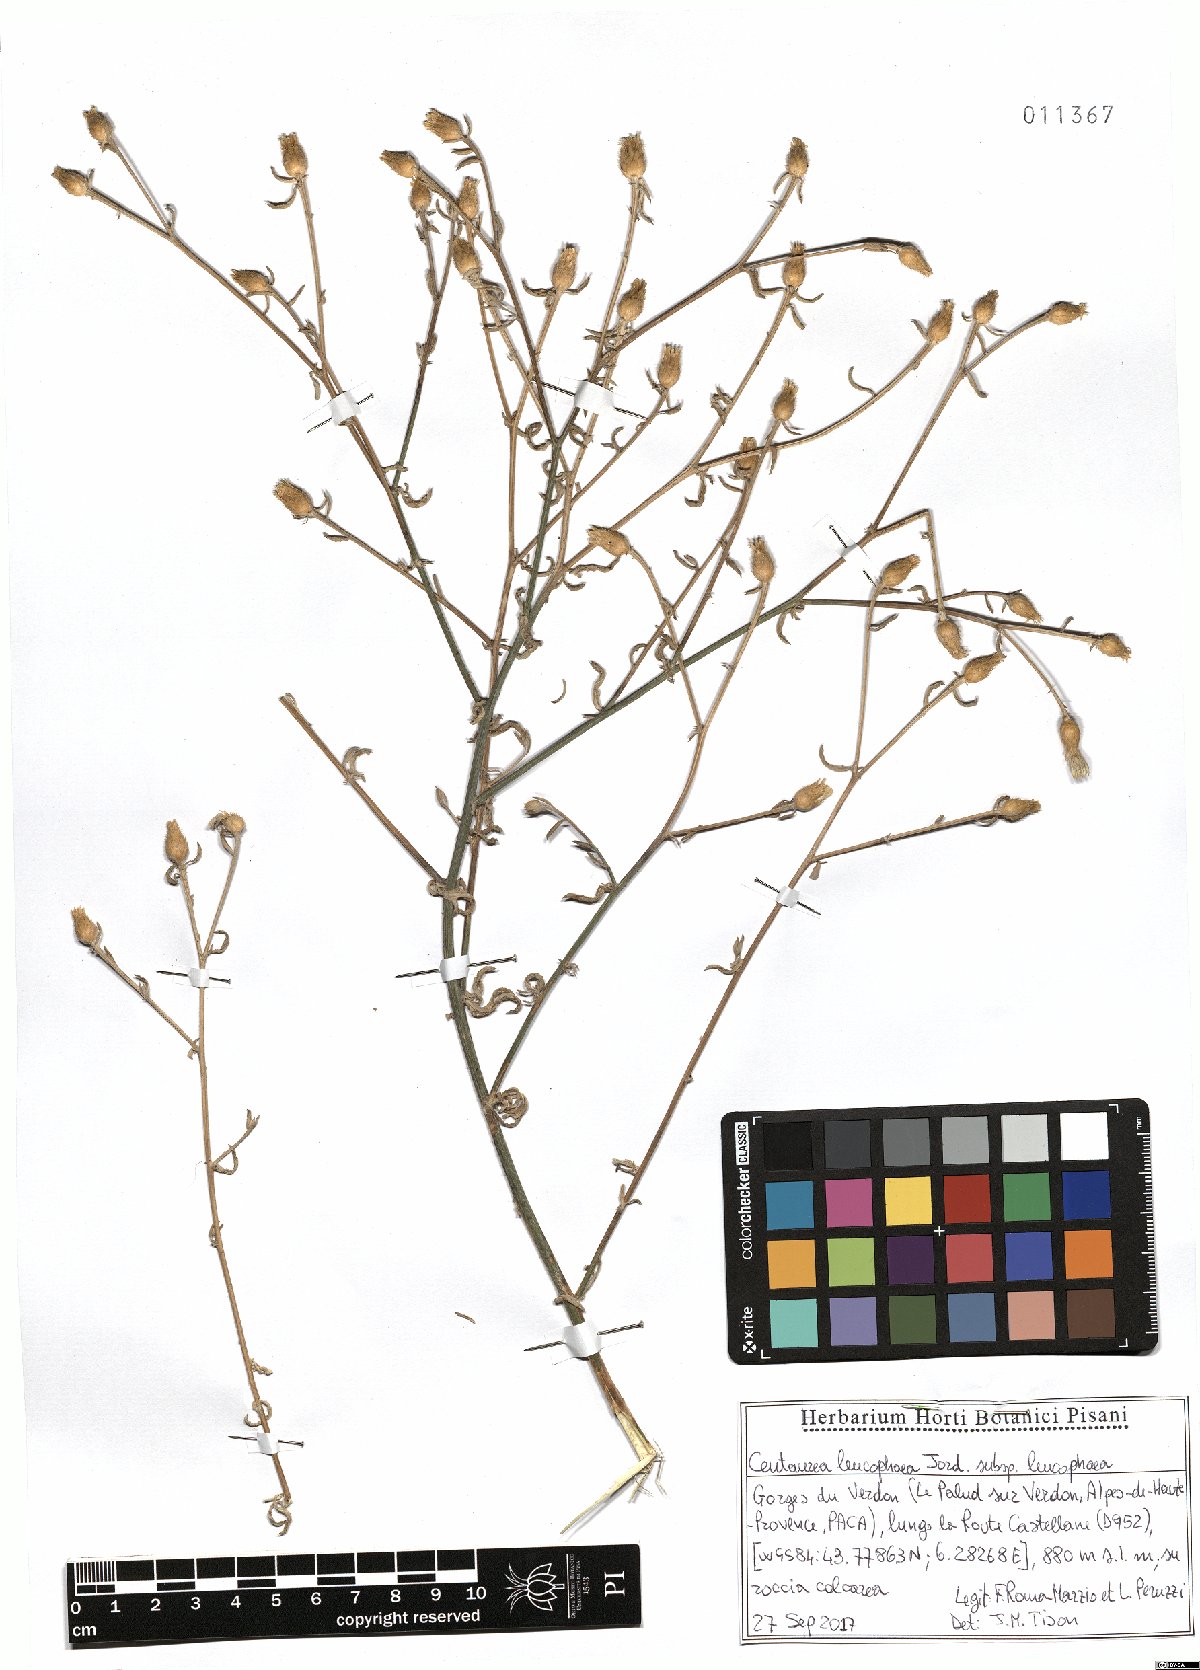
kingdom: Plantae
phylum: Tracheophyta
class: Magnoliopsida
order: Asterales
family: Asteraceae
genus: Centaurea
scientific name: Centaurea leucophaea
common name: Whitish-leaved knapweed
